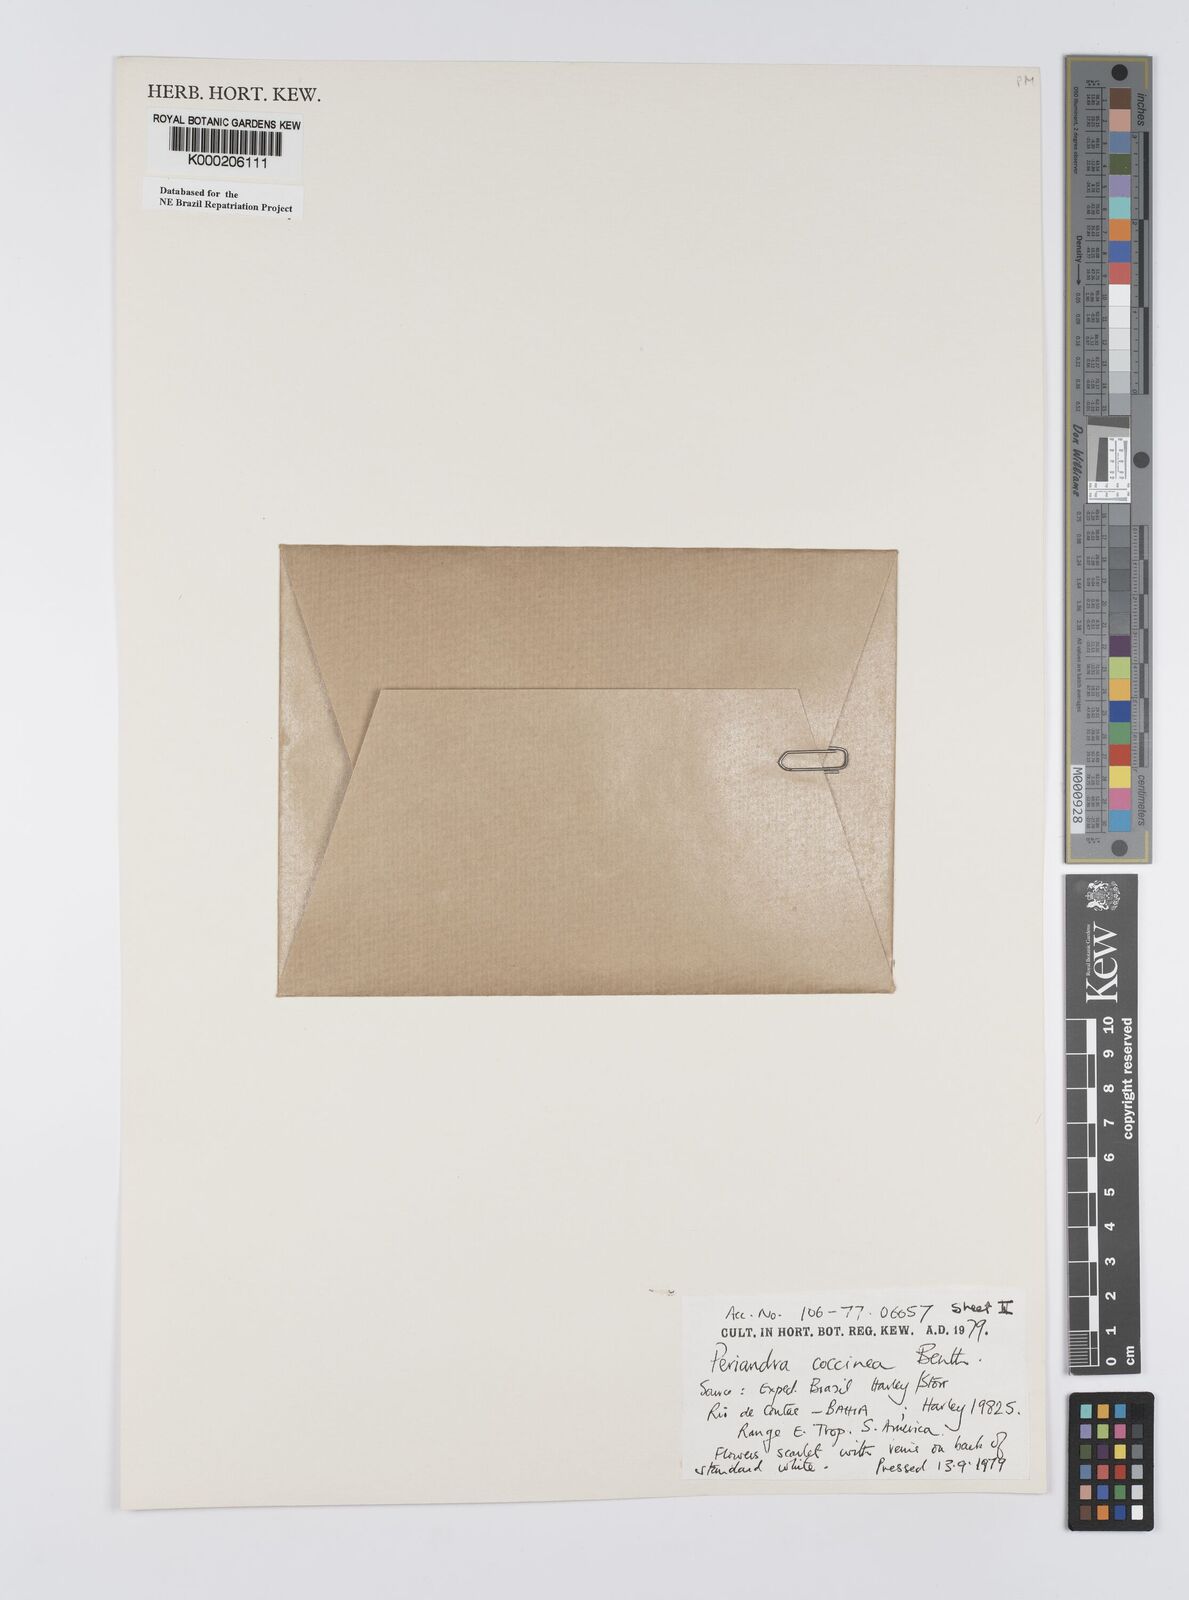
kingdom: Plantae
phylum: Tracheophyta
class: Magnoliopsida
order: Fabales
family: Fabaceae
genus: Periandra
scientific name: Periandra coccinea
